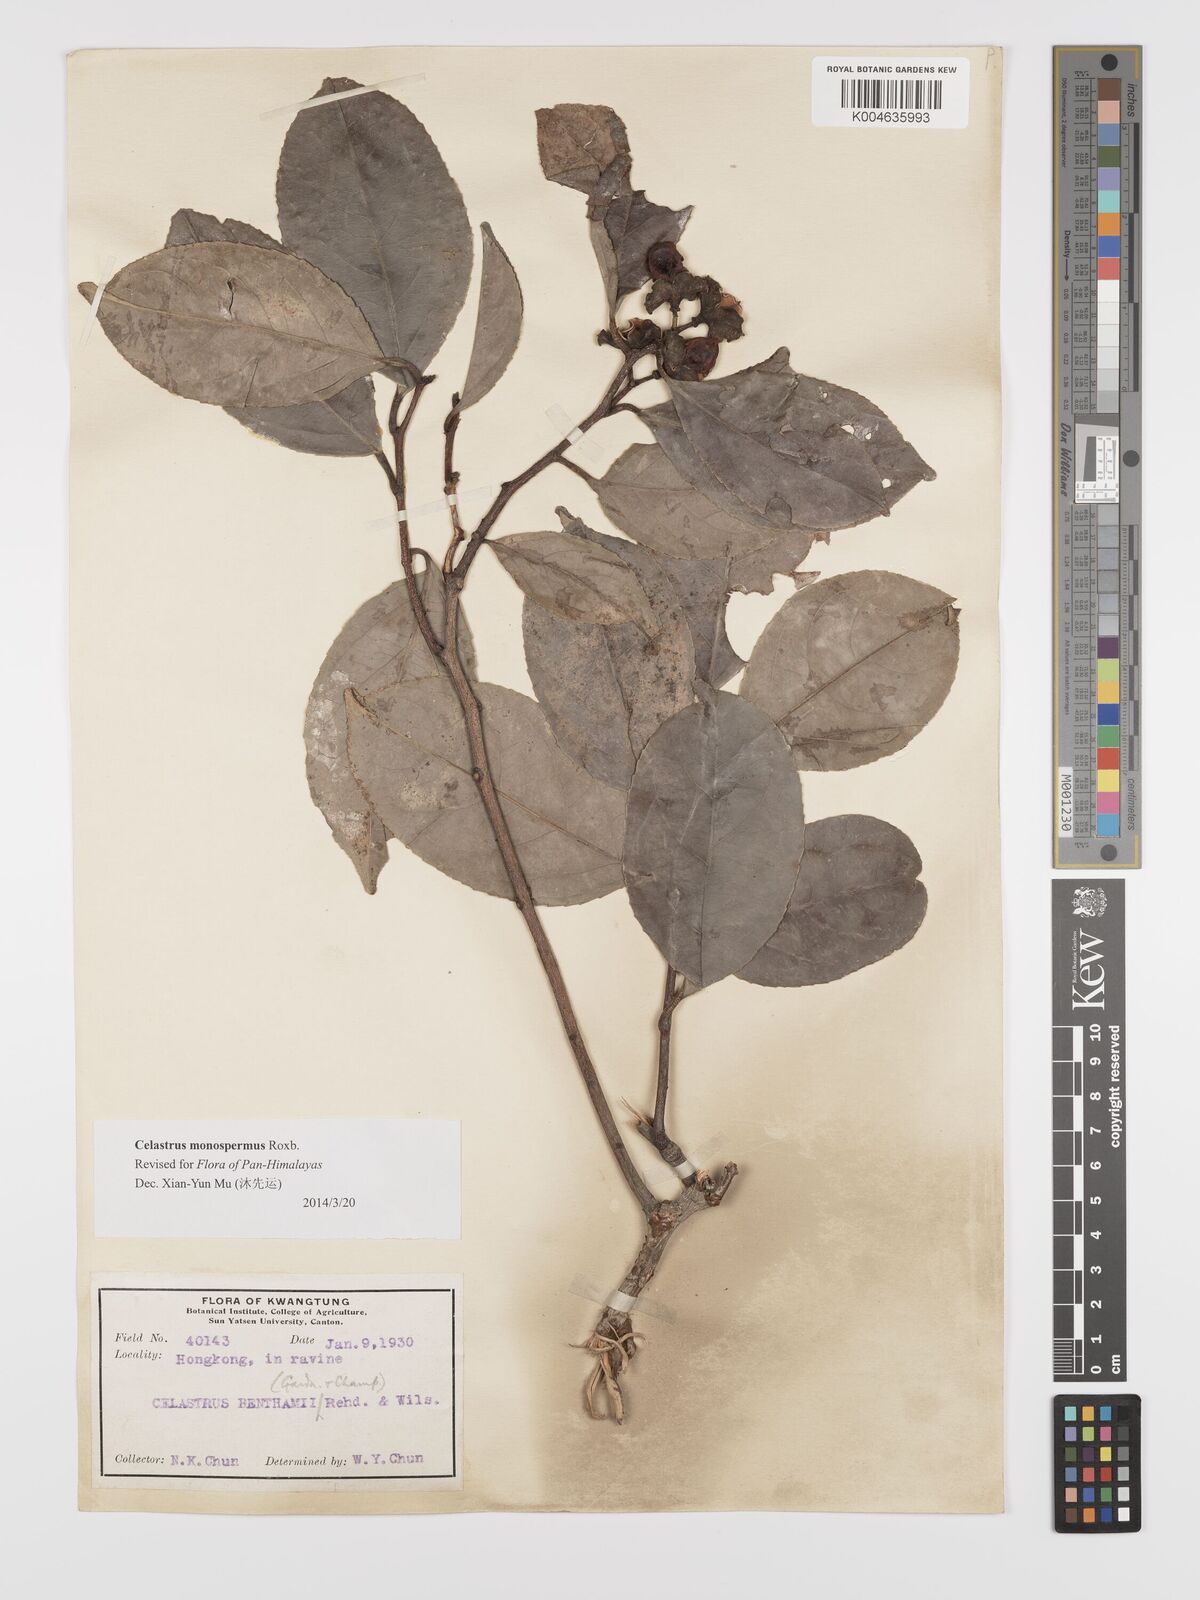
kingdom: Plantae
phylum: Tracheophyta
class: Magnoliopsida
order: Celastrales
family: Celastraceae
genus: Celastrus
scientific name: Celastrus monospermus
